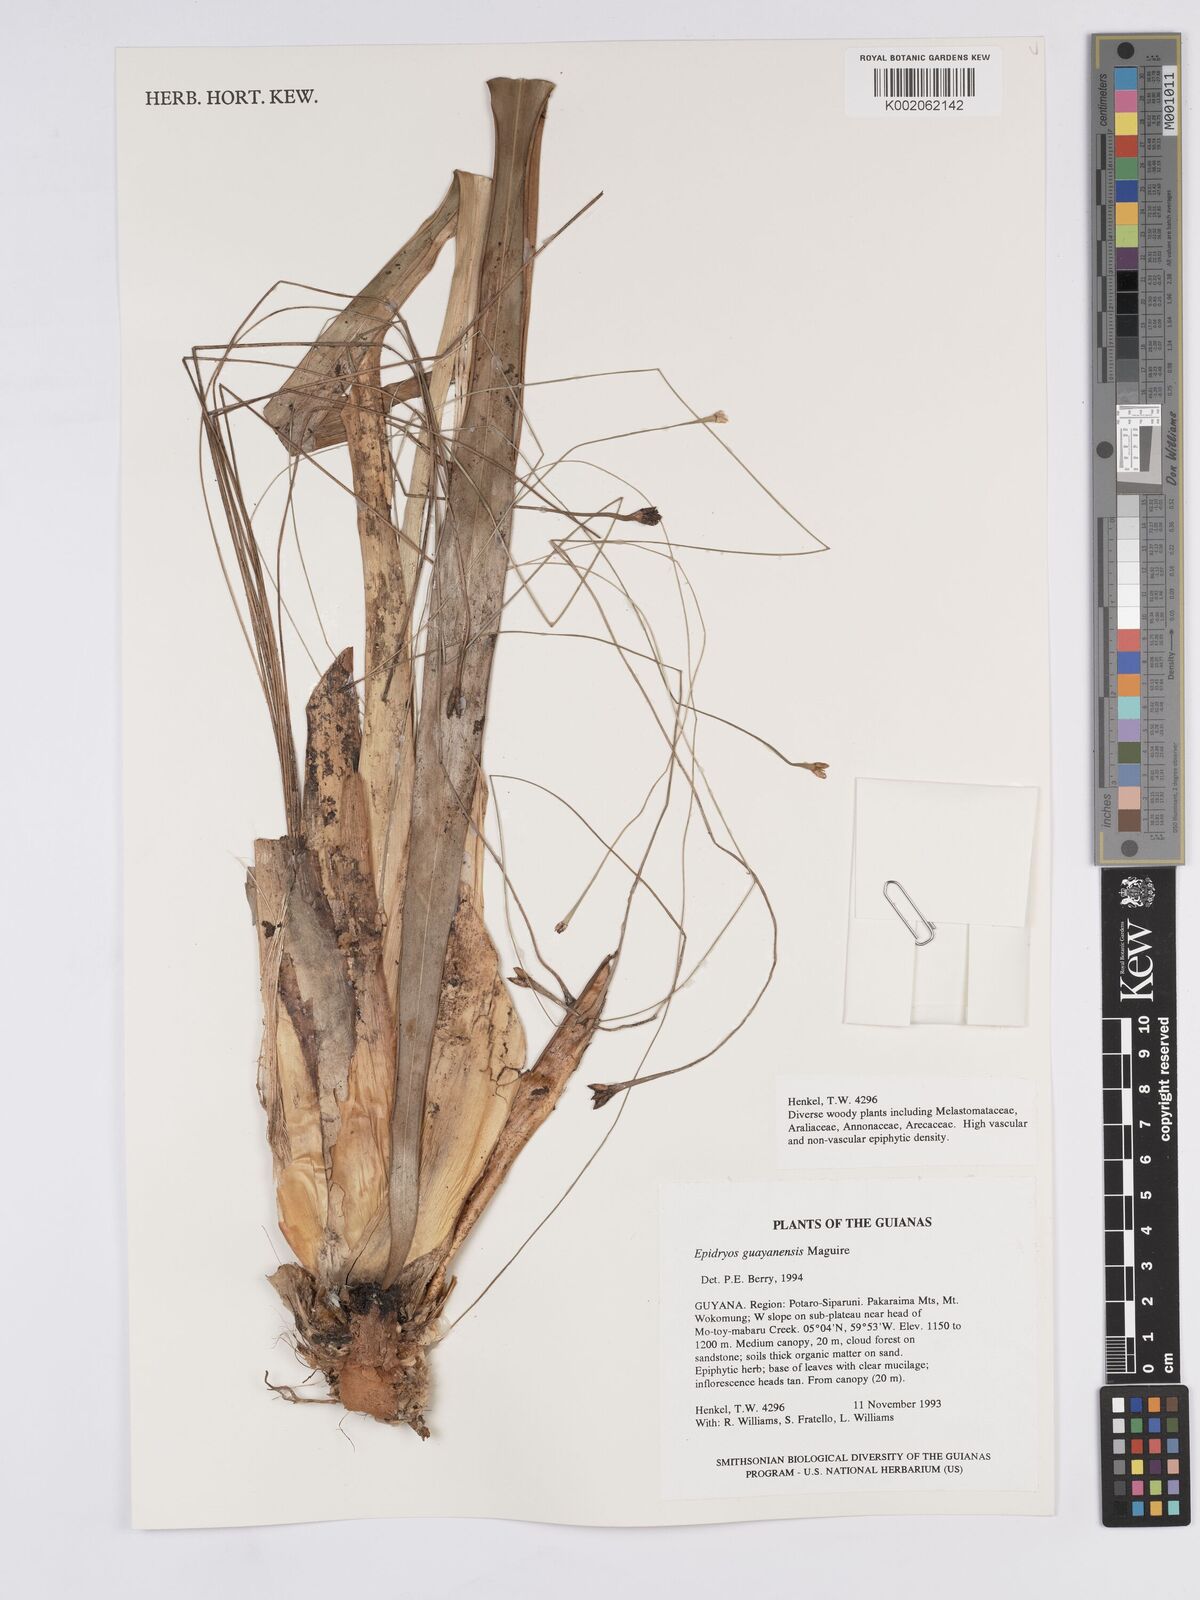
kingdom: Plantae
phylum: Tracheophyta
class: Liliopsida
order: Poales
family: Rapateaceae
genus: Epidryos
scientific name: Epidryos guayanensis
